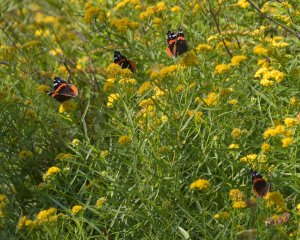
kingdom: Animalia
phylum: Arthropoda
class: Insecta
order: Lepidoptera
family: Nymphalidae
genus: Vanessa
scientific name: Vanessa atalanta
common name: Red Admiral
